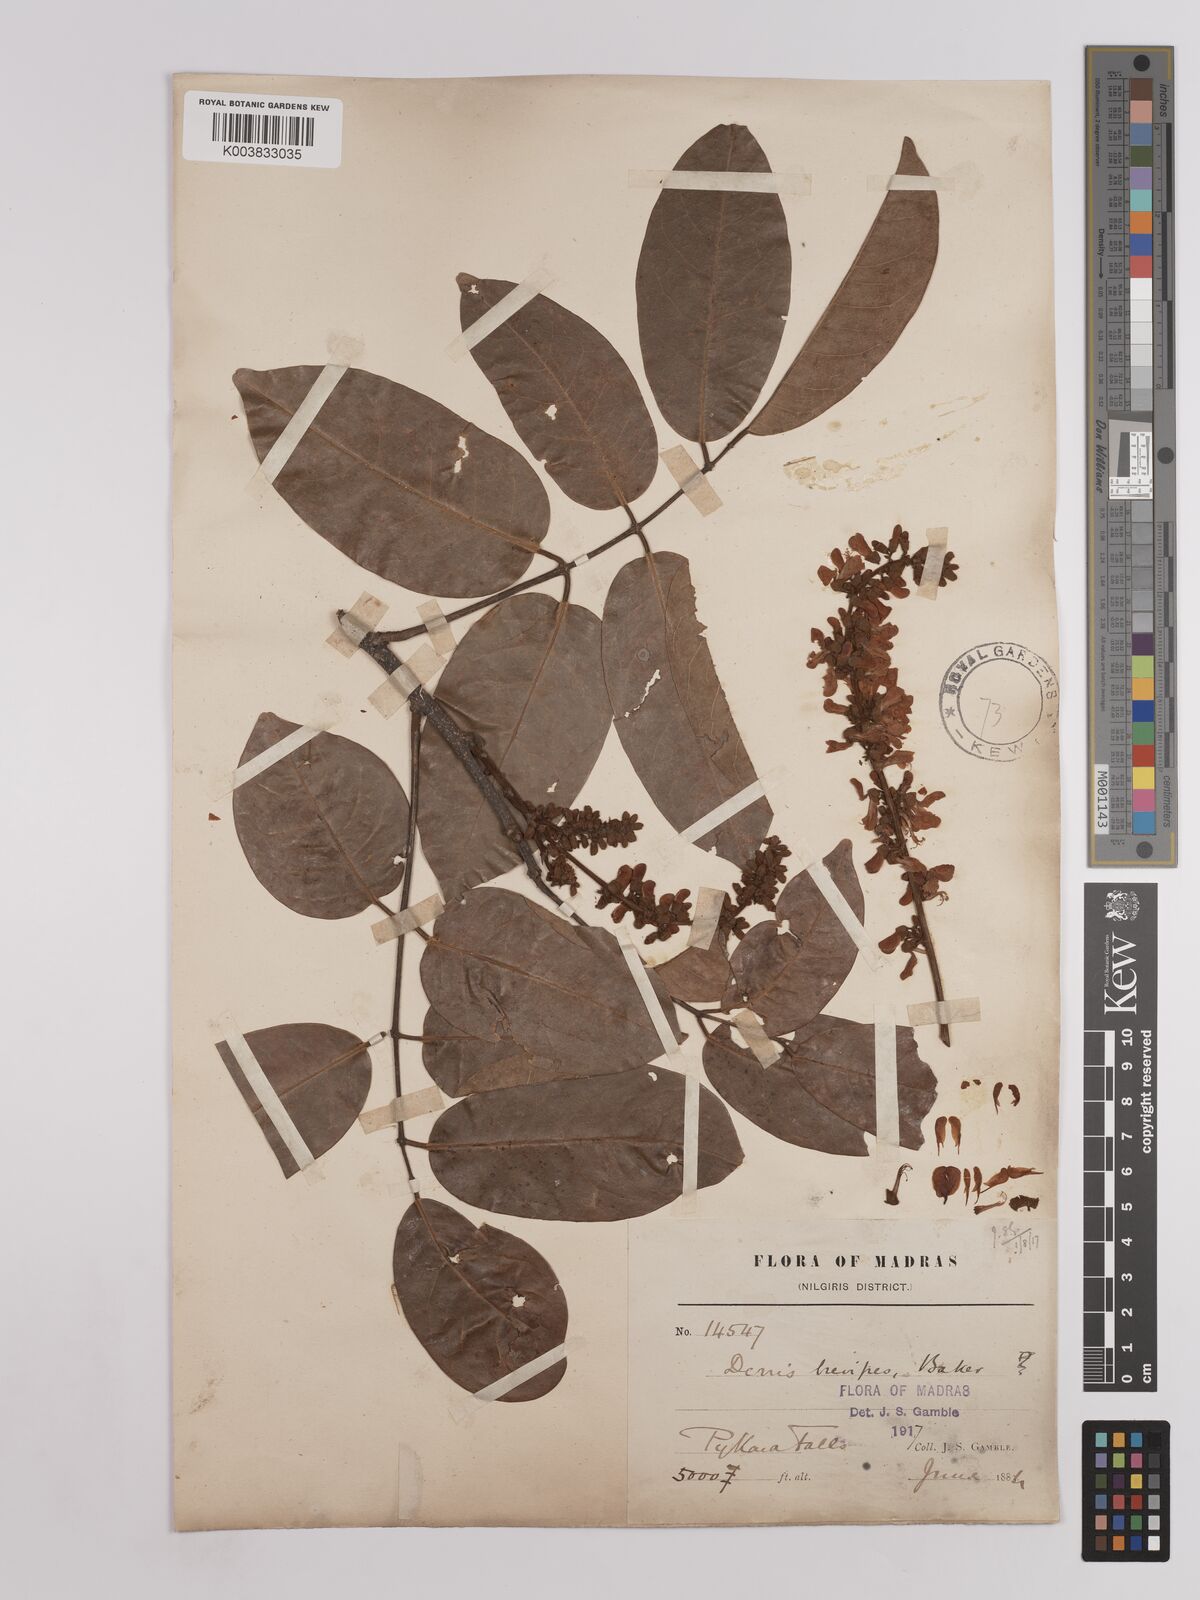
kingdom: Plantae
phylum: Tracheophyta
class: Magnoliopsida
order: Fabales
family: Fabaceae
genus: Derris
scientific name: Derris brevipes
